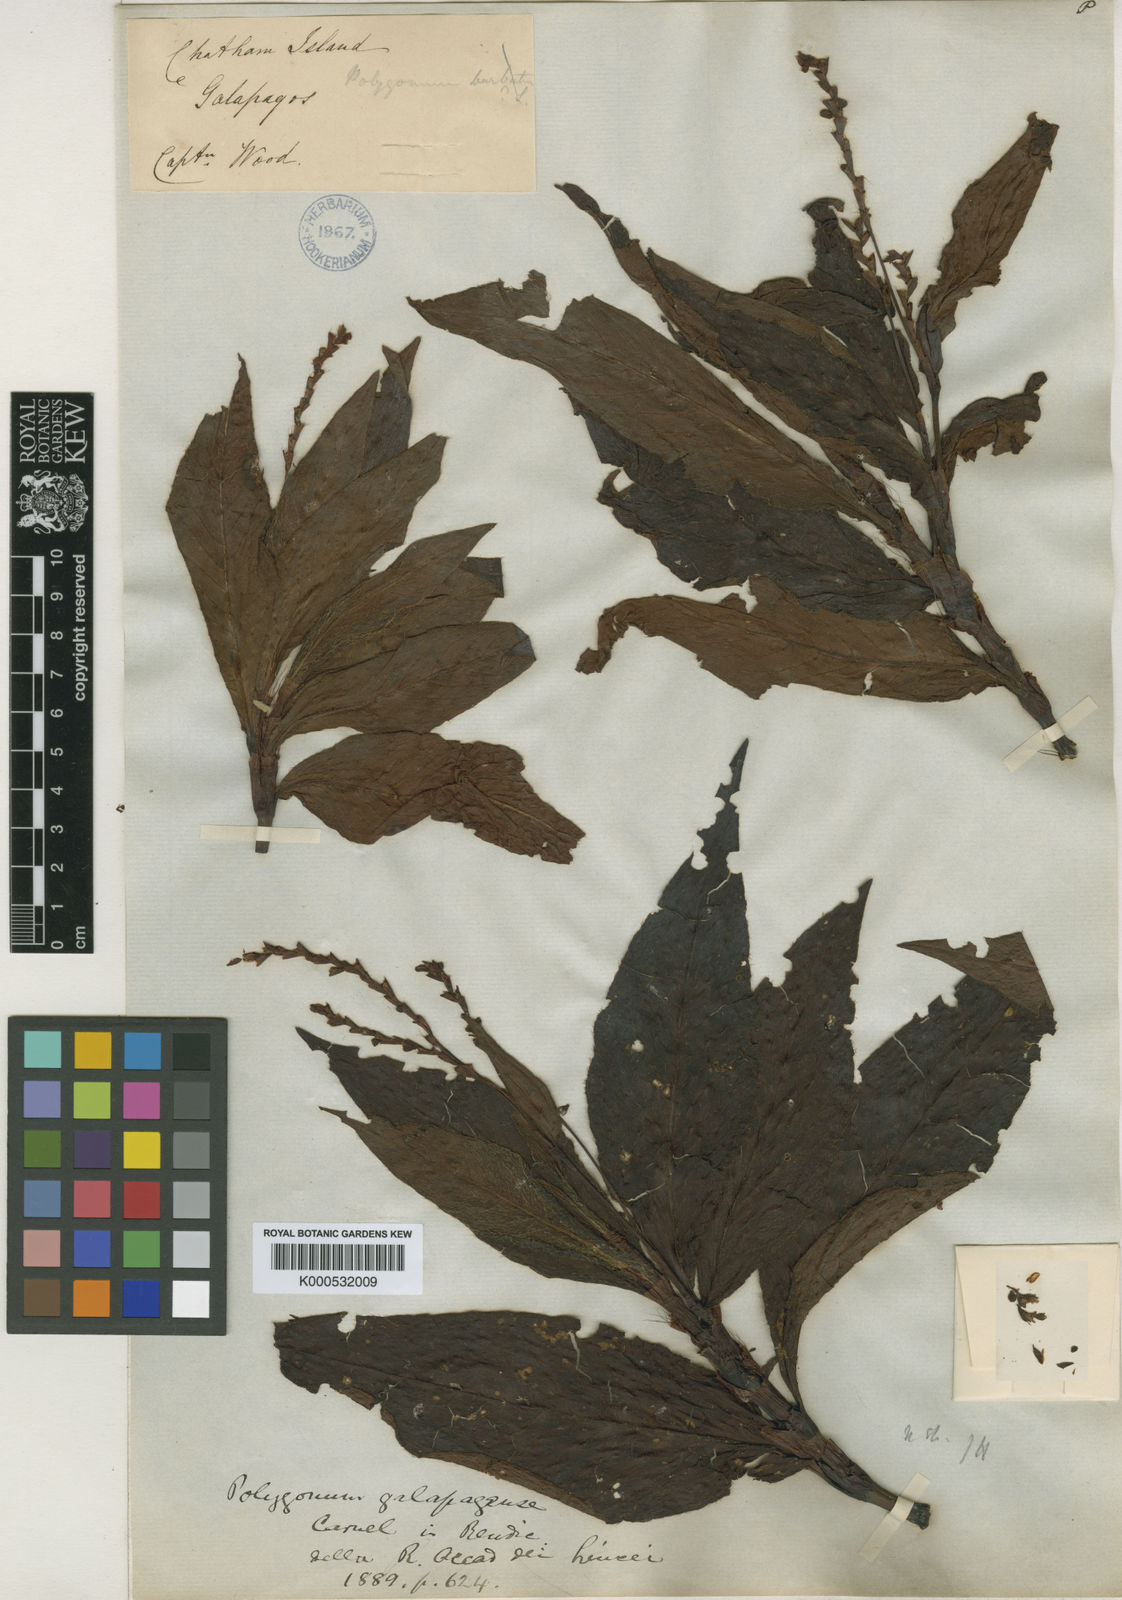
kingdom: Plantae
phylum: Tracheophyta
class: Magnoliopsida
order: Caryophyllales
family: Polygonaceae
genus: Persicaria
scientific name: Persicaria galapagensis
